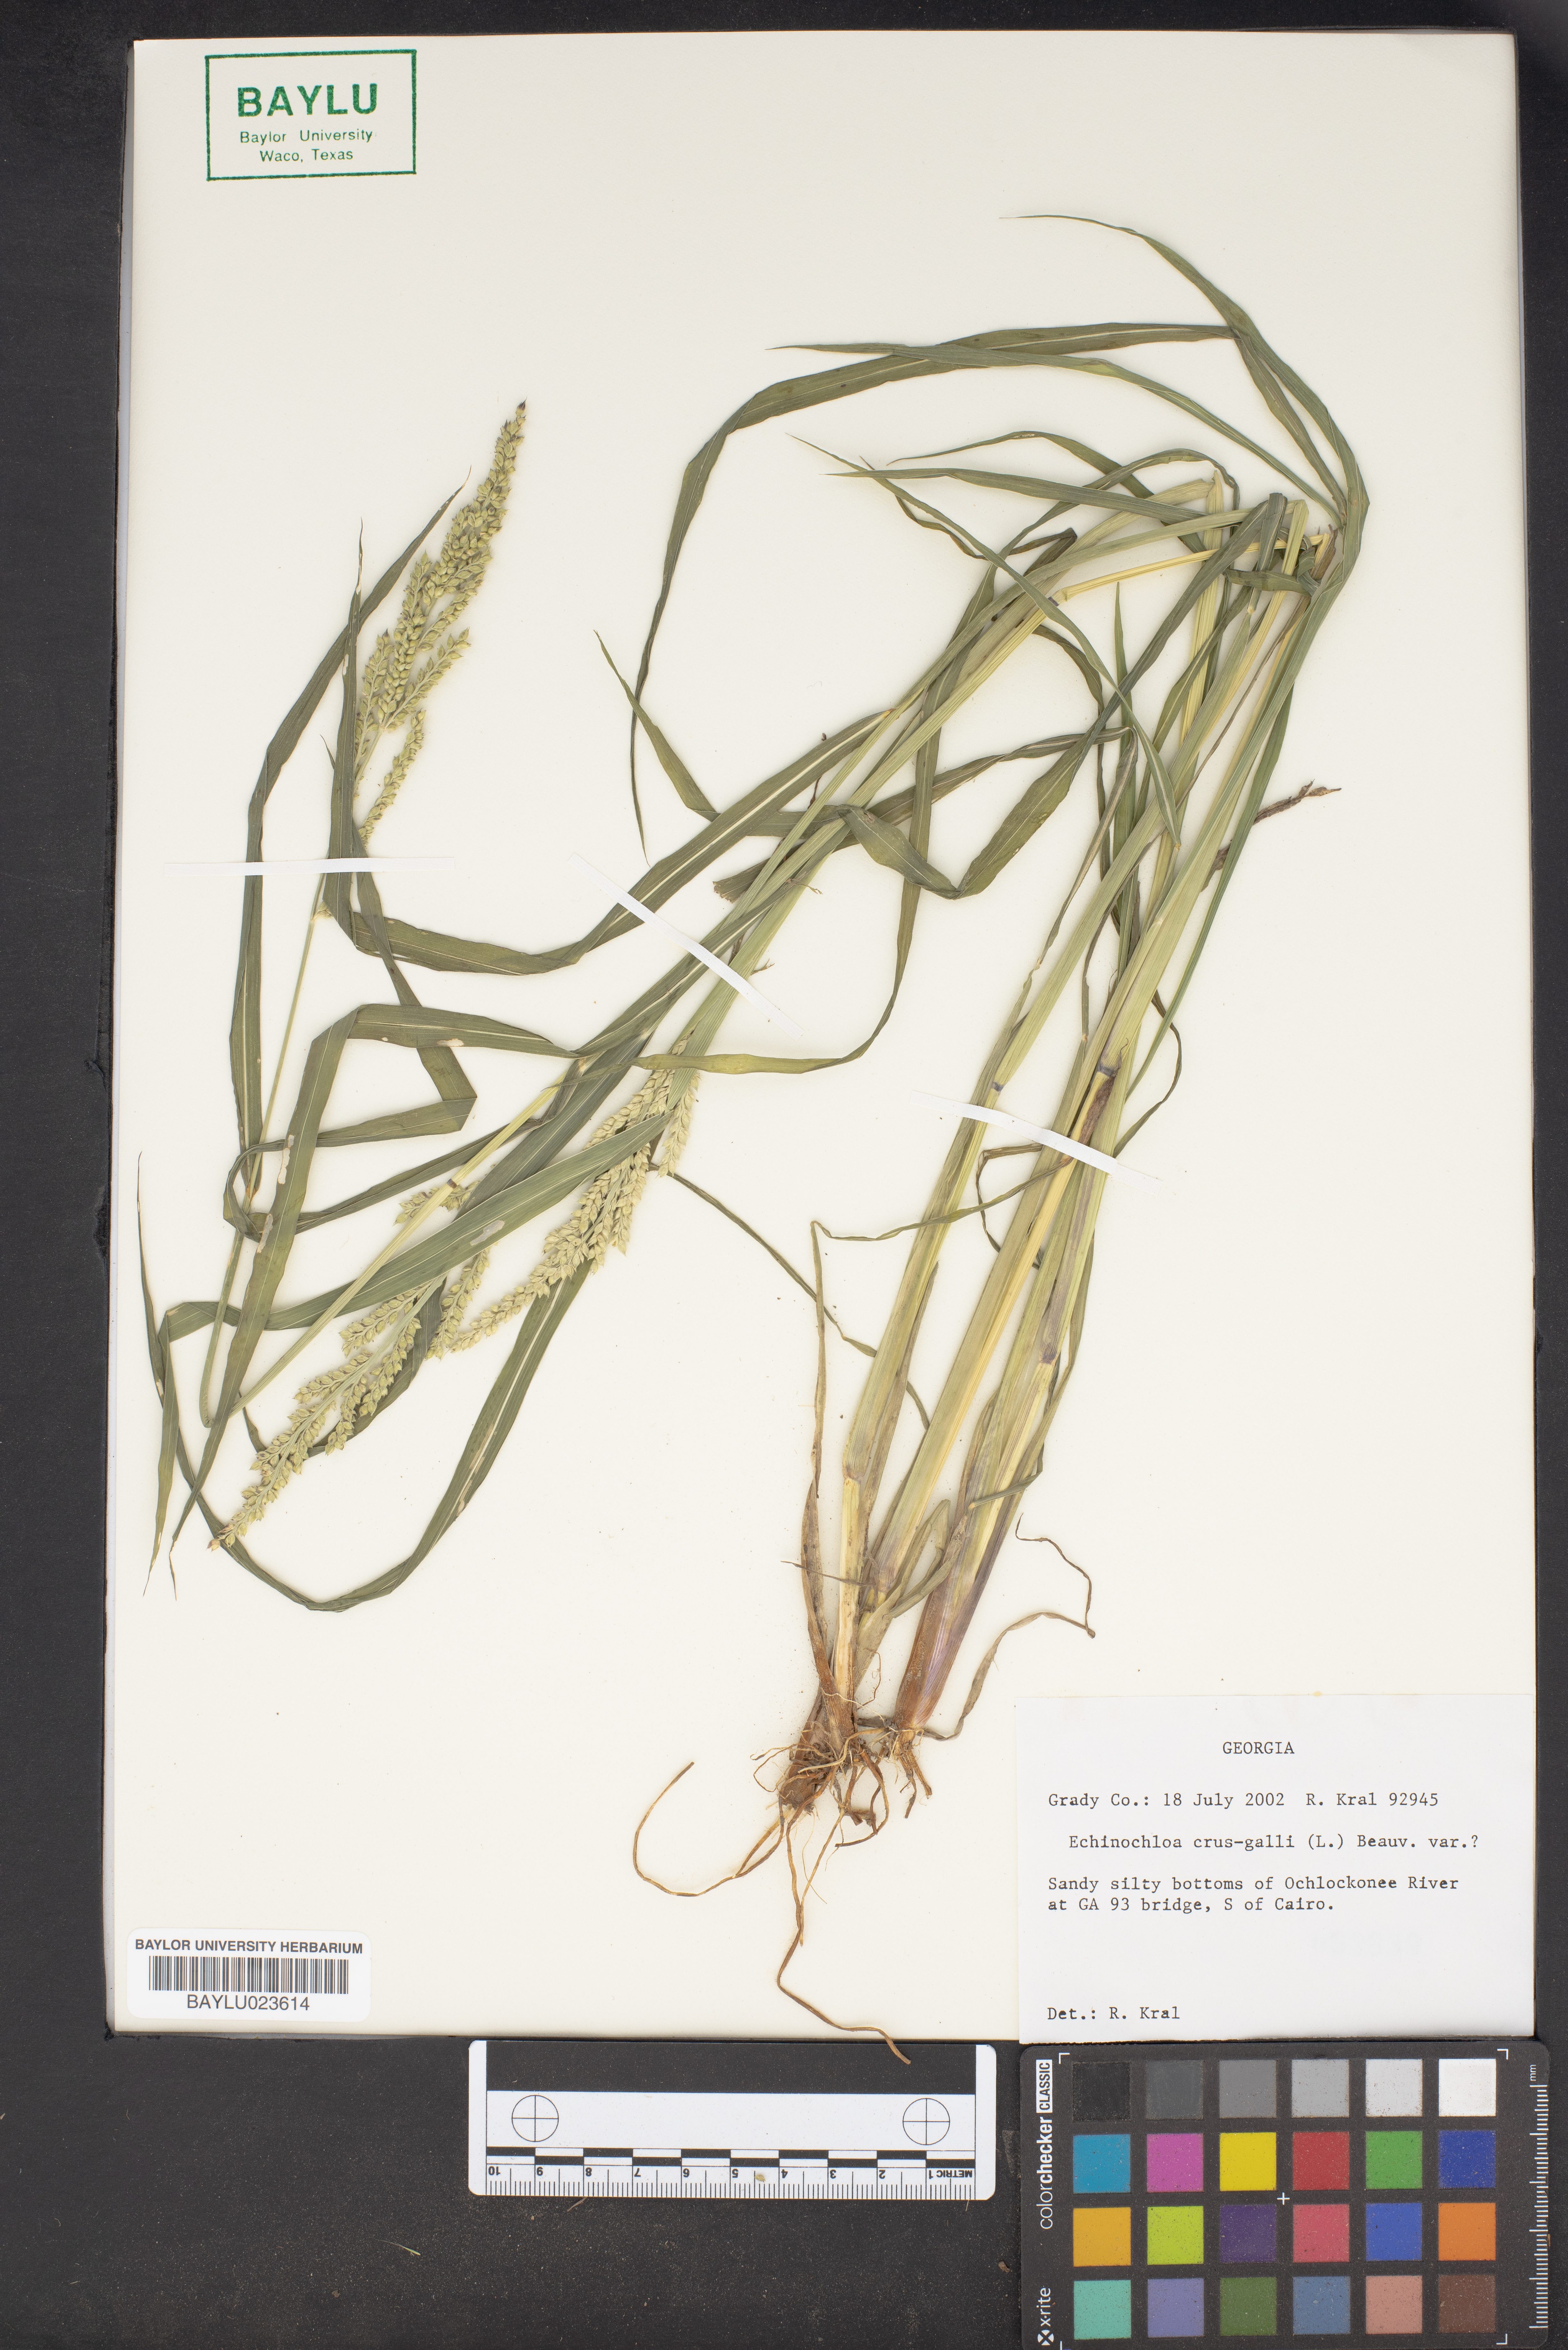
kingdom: Plantae
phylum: Tracheophyta
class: Liliopsida
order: Poales
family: Poaceae
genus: Echinochloa
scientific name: Echinochloa crus-galli
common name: Cockspur
